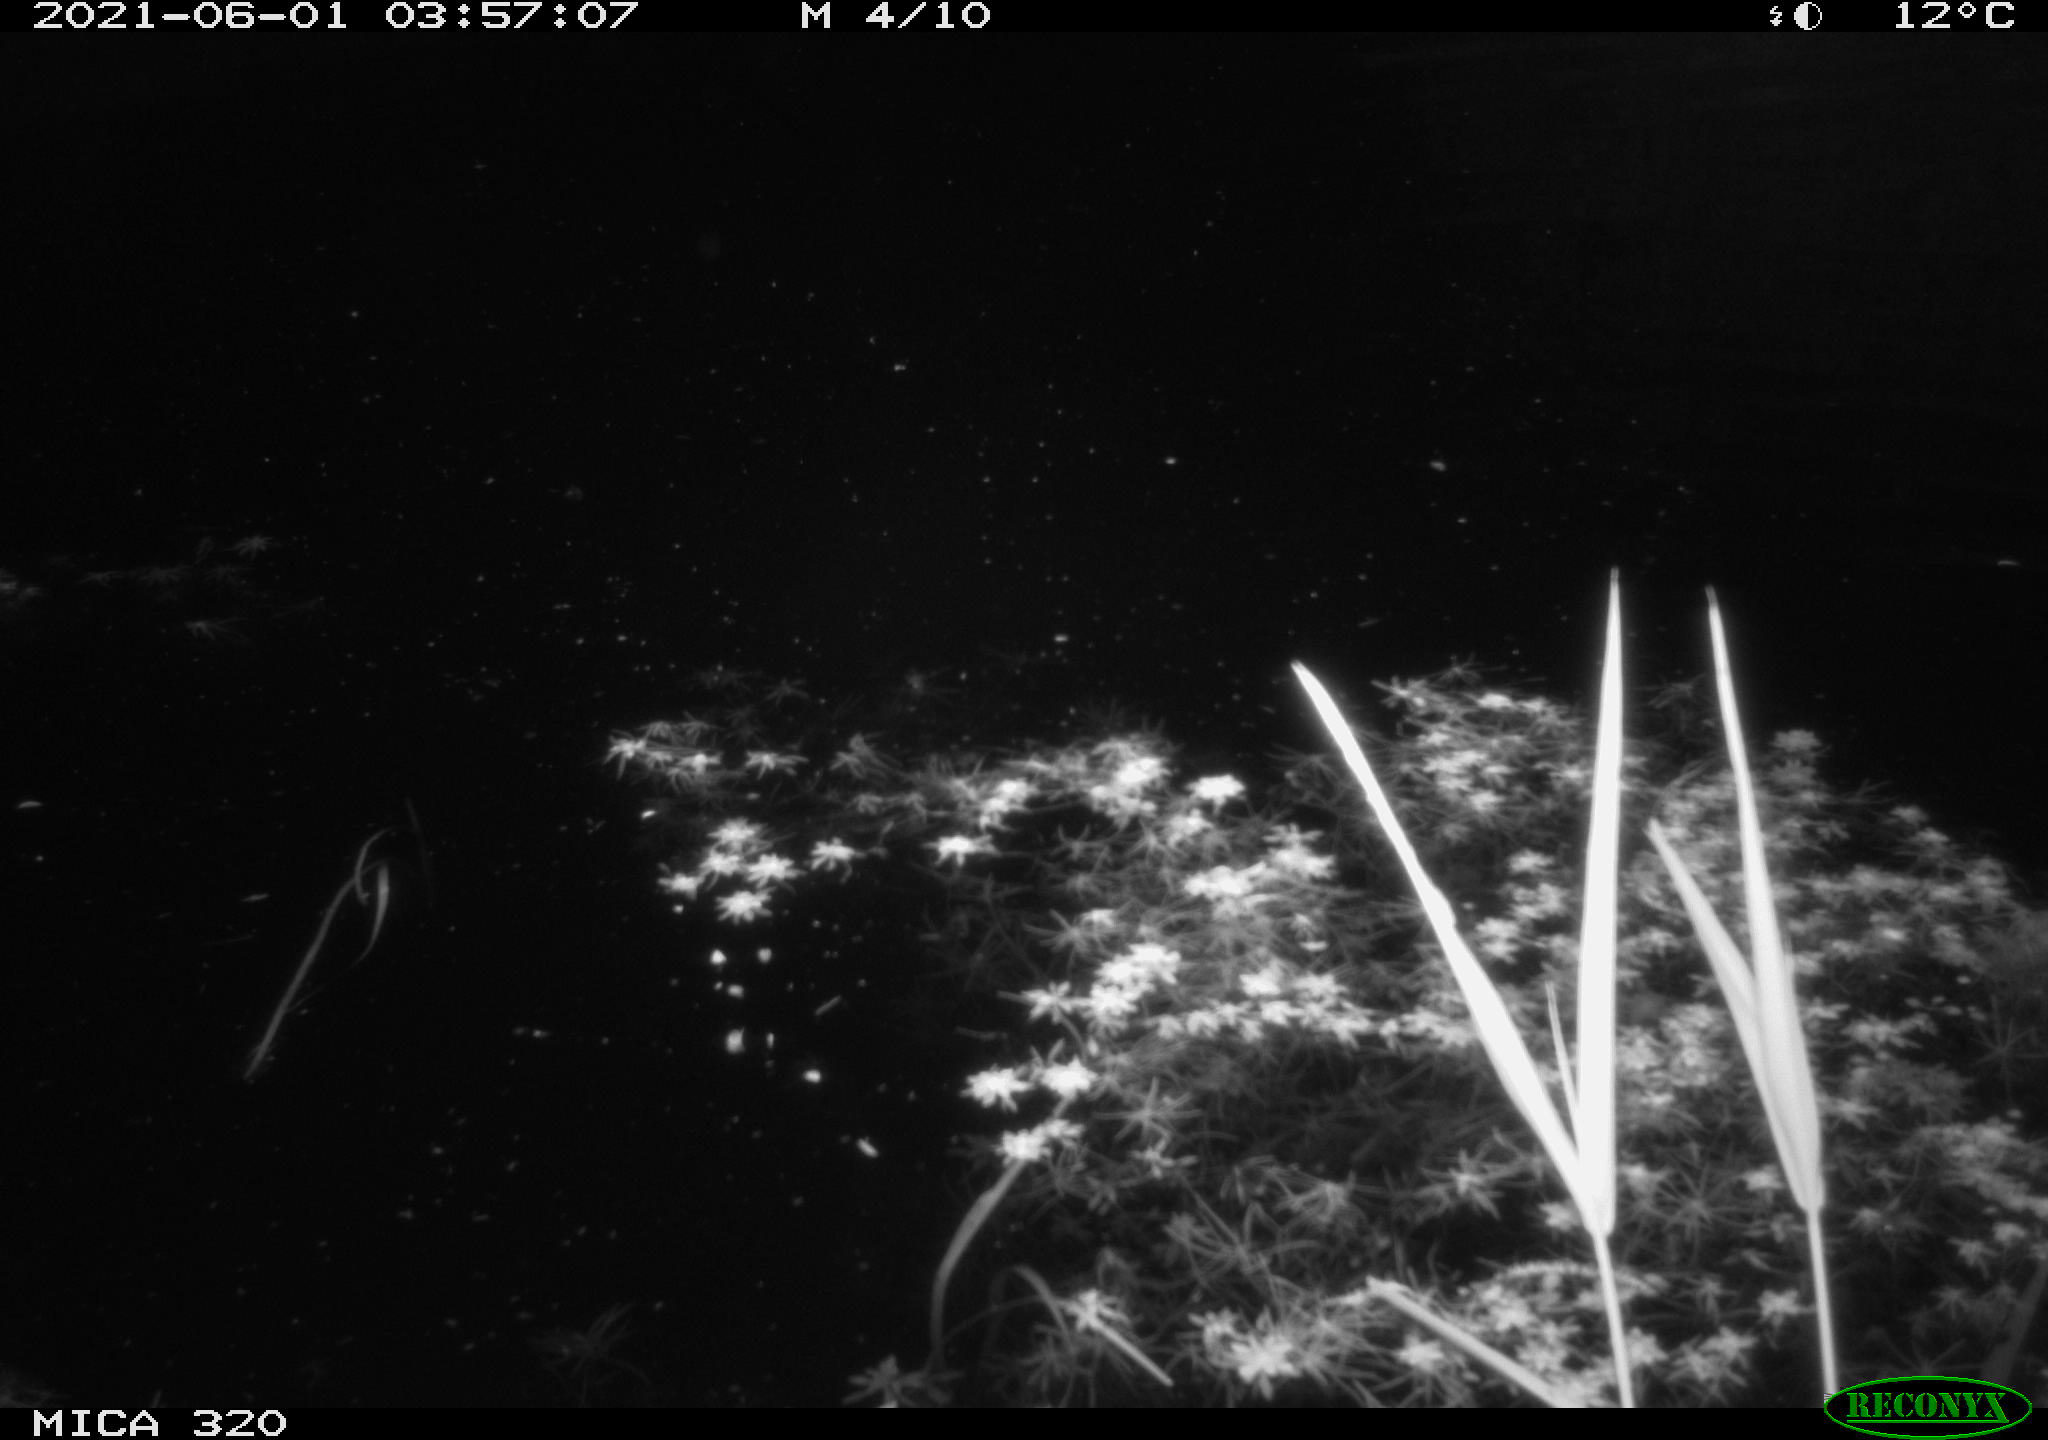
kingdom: Animalia
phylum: Chordata
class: Aves
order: Anseriformes
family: Anatidae
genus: Anas
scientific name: Anas platyrhynchos
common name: Mallard
